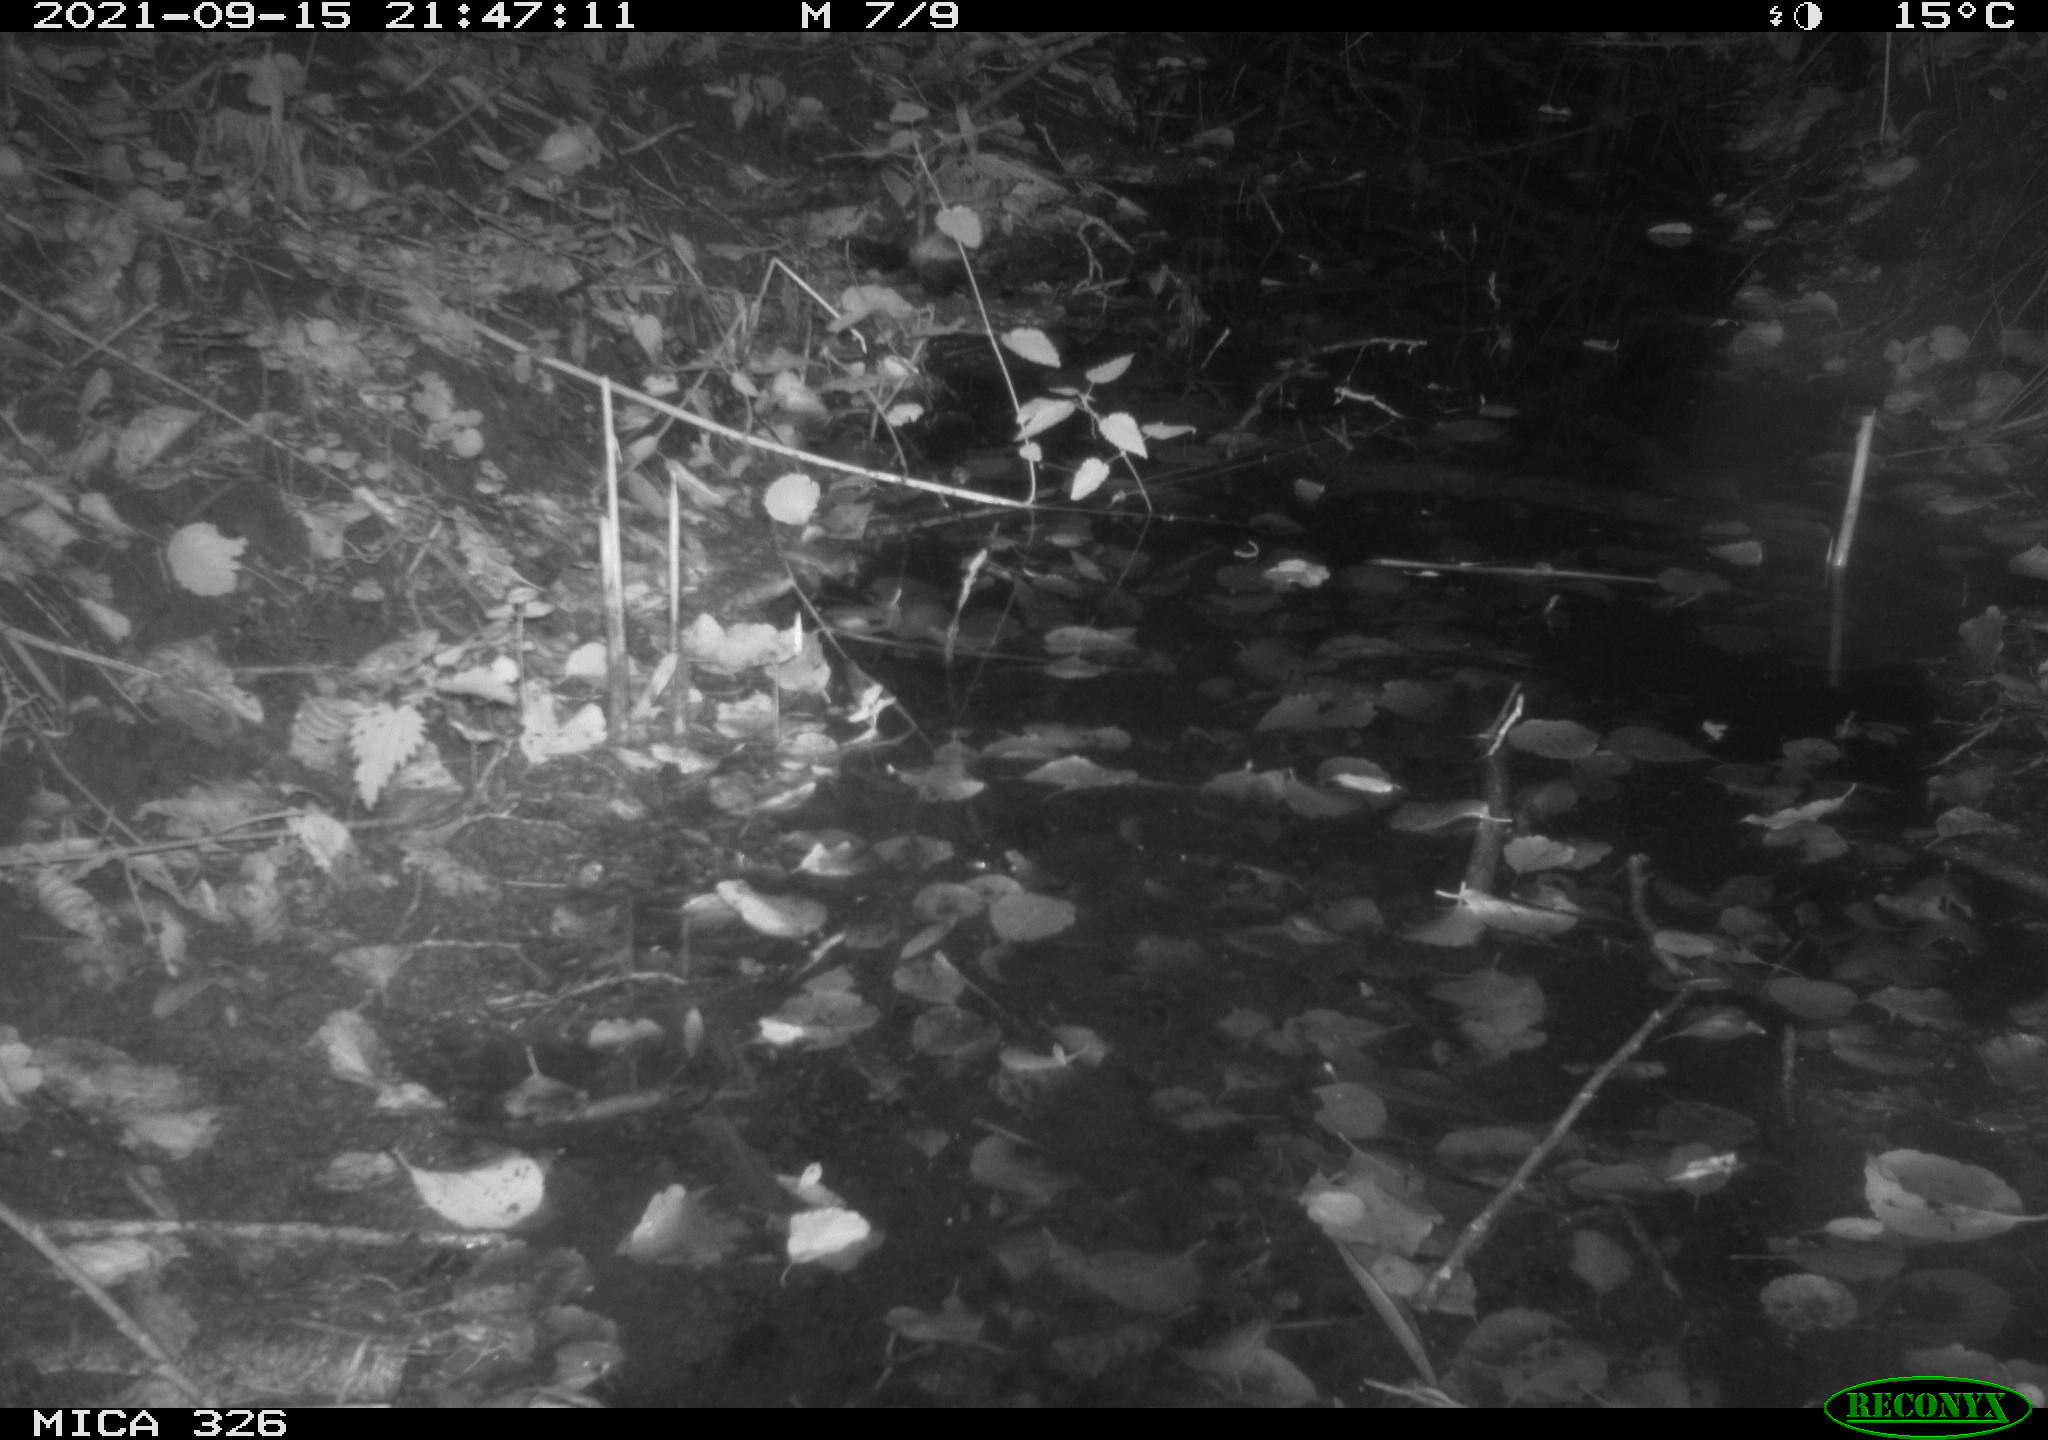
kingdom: Animalia
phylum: Chordata
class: Mammalia
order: Rodentia
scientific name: Rodentia
